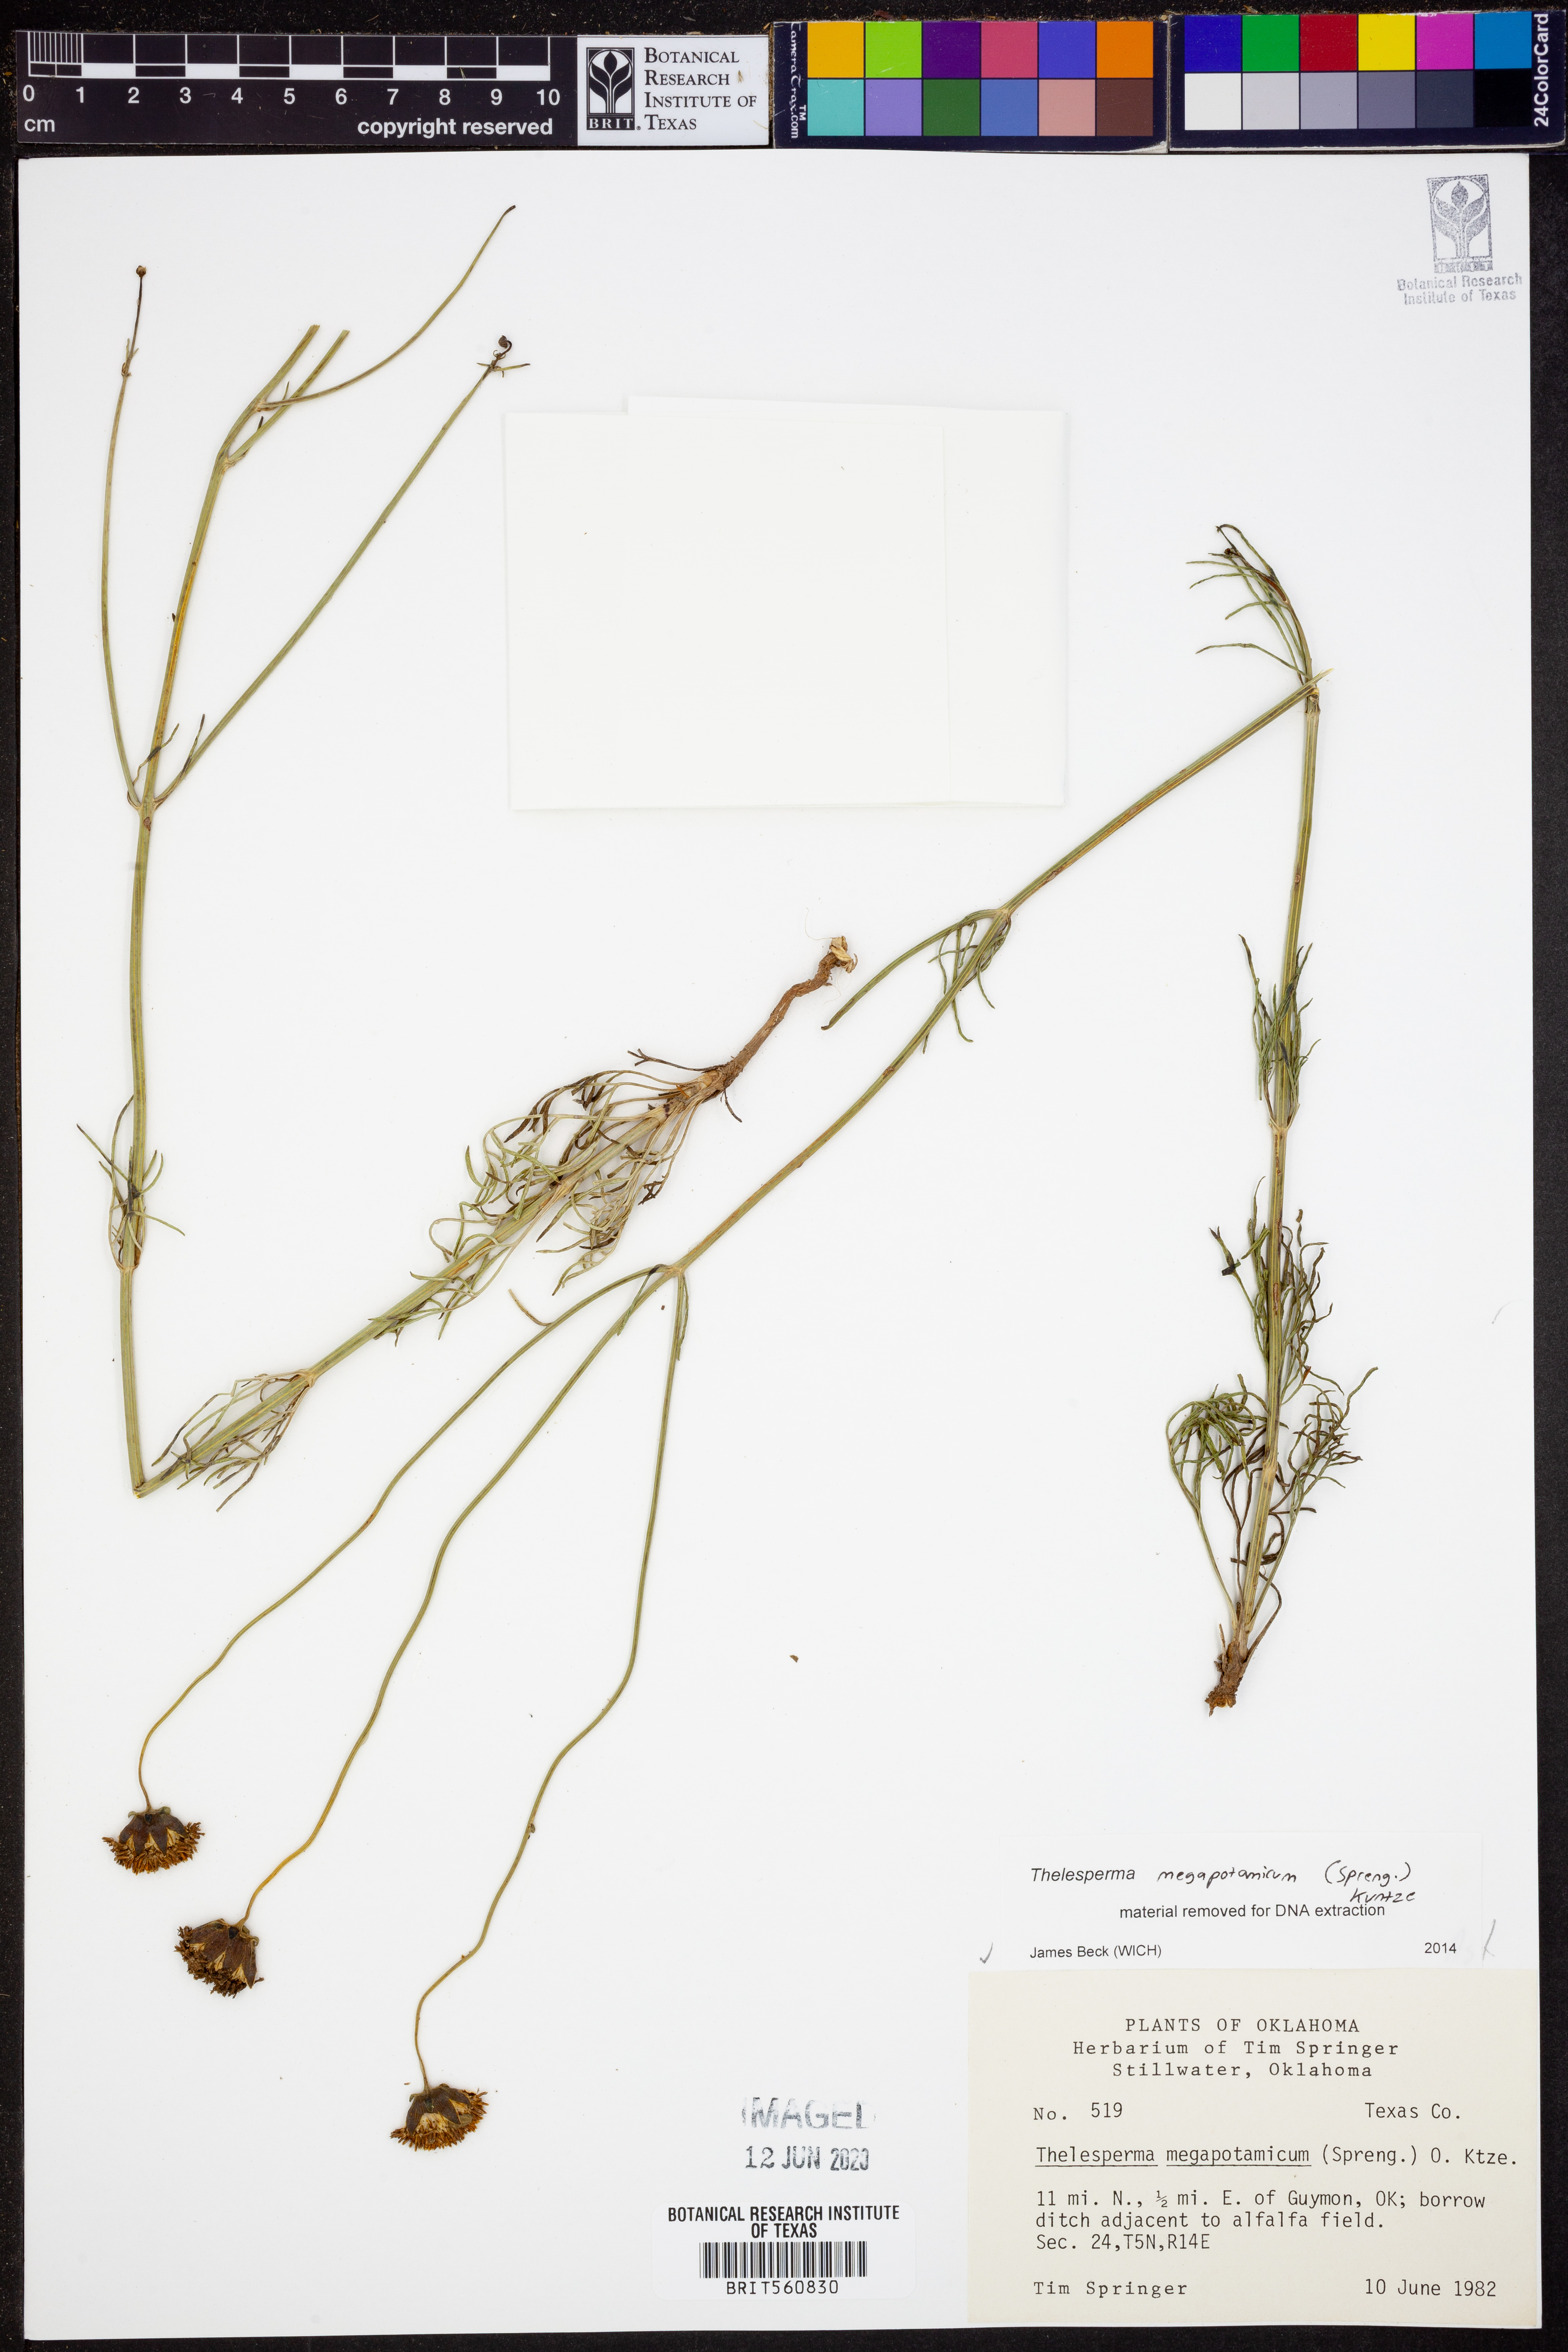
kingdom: Plantae
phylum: Tracheophyta
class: Magnoliopsida
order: Asterales
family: Asteraceae
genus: Thelesperma
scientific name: Thelesperma megapotamicum
